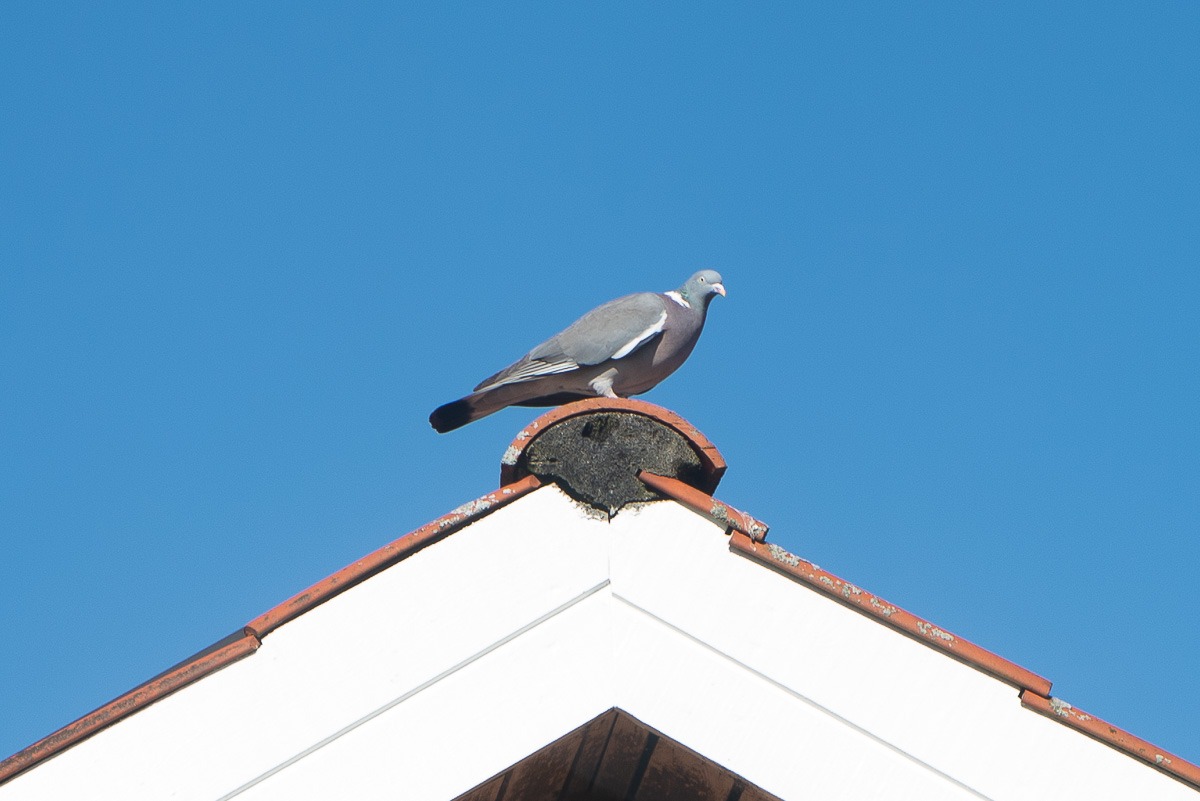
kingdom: Animalia
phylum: Chordata
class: Aves
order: Columbiformes
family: Columbidae
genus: Columba
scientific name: Columba palumbus
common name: Ringdue
